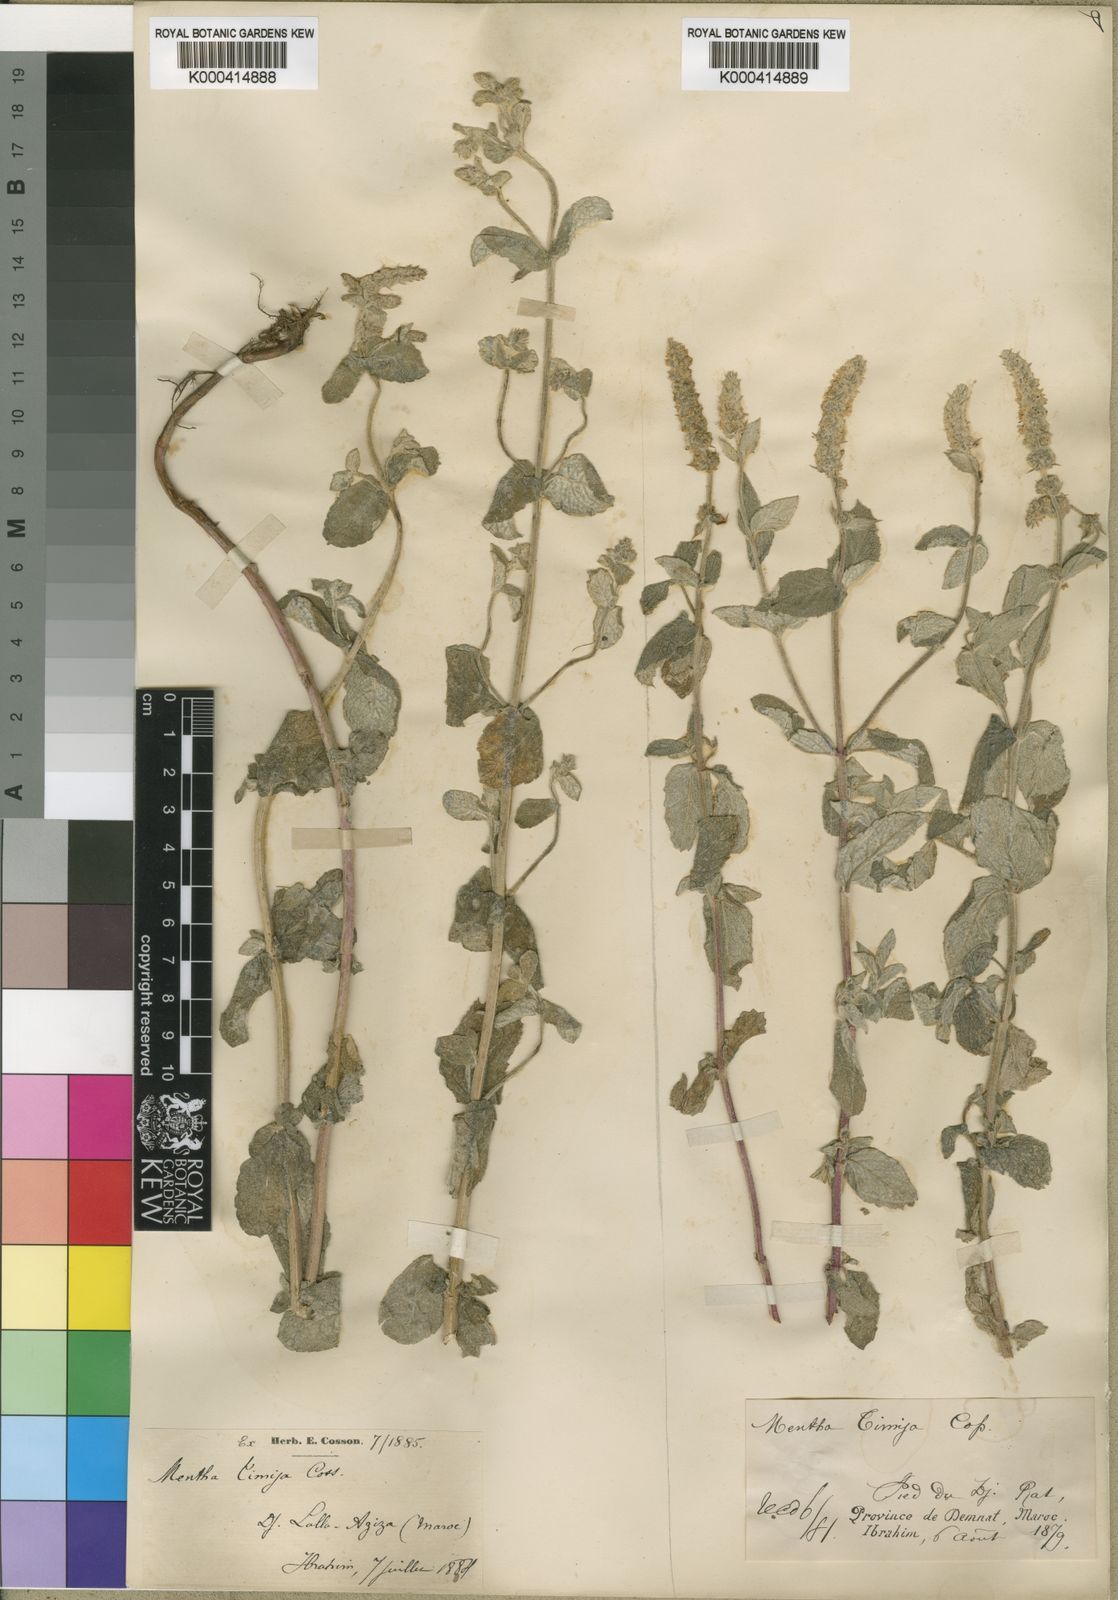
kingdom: Plantae
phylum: Tracheophyta
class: Magnoliopsida
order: Lamiales
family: Lamiaceae
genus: Mentha
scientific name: Mentha
